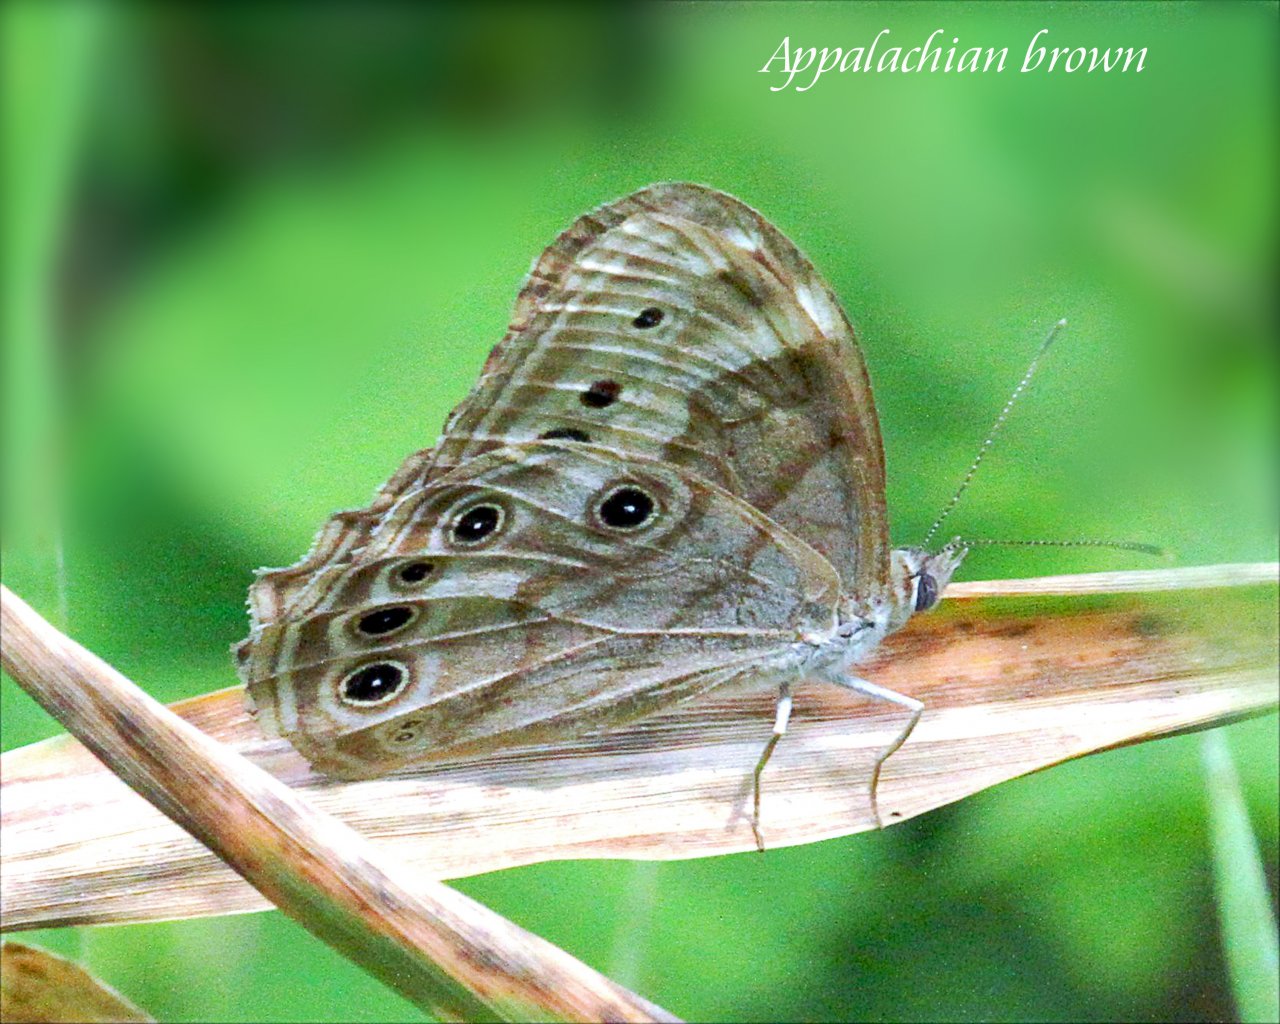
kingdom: Animalia
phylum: Arthropoda
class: Insecta
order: Lepidoptera
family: Nymphalidae
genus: Lethe
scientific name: Lethe anthedon
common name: Northern Pearly-Eye
